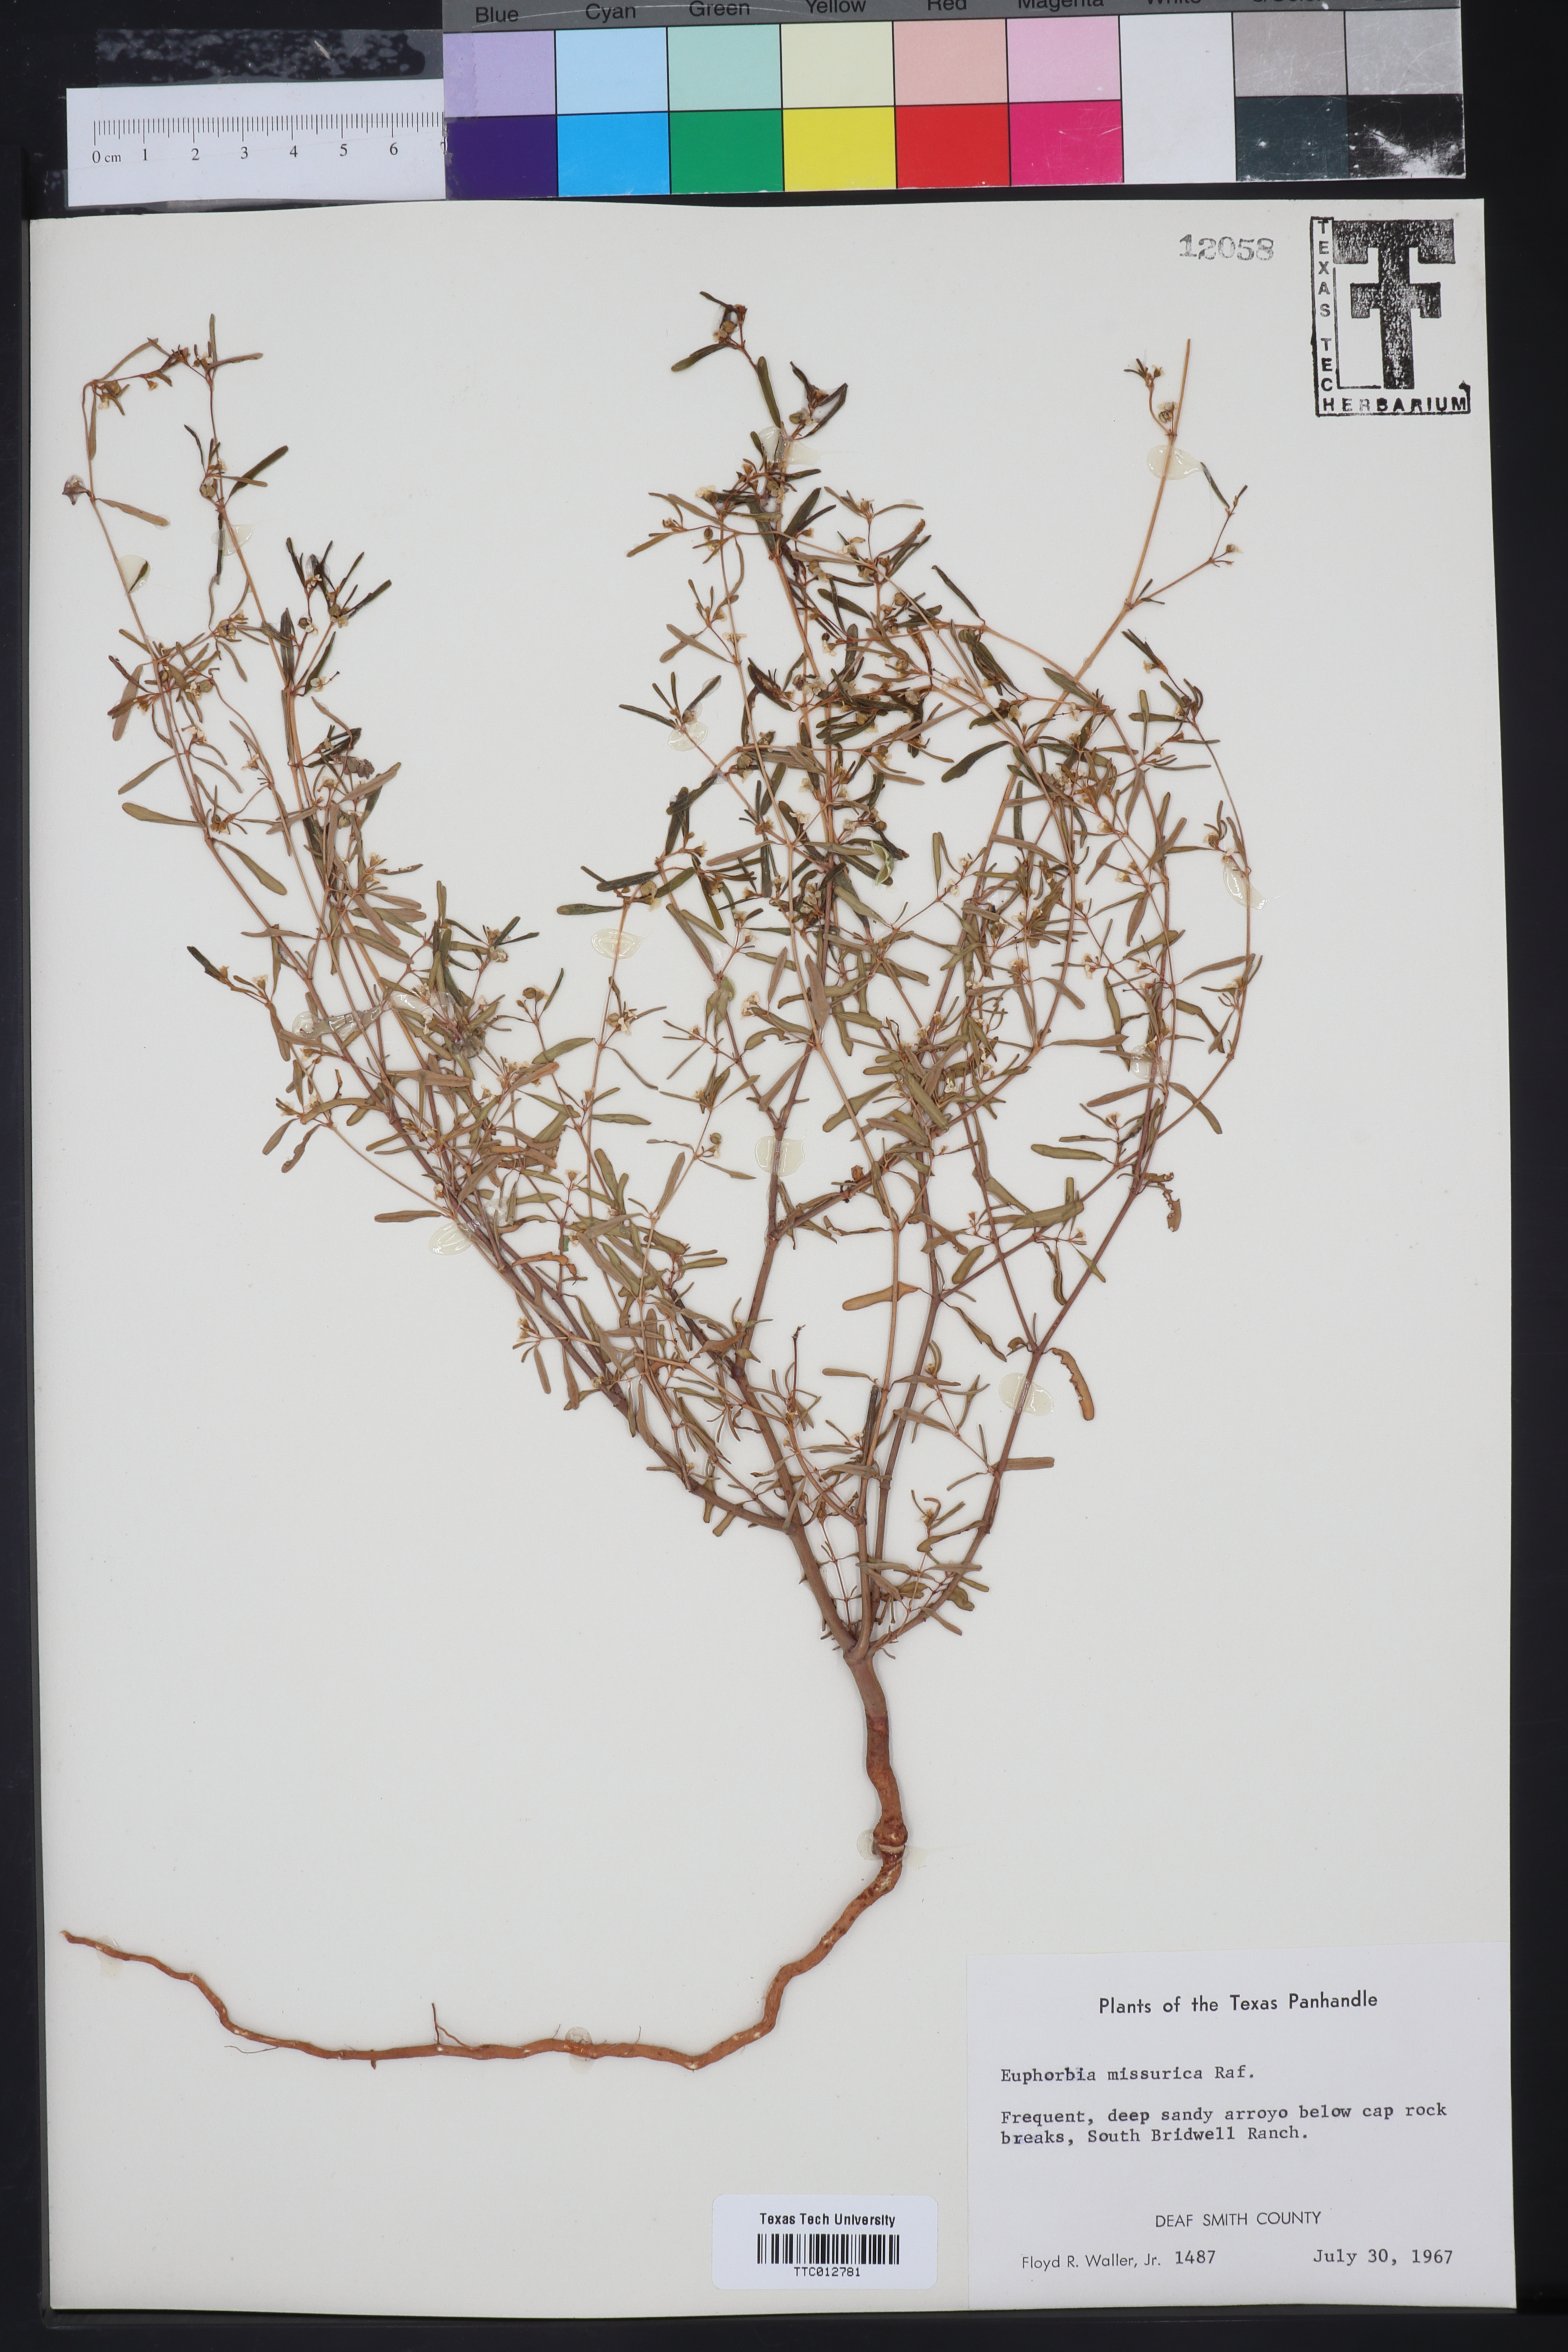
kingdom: Plantae
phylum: Tracheophyta
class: Magnoliopsida
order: Malpighiales
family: Euphorbiaceae
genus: Euphorbia
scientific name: Euphorbia missurica
